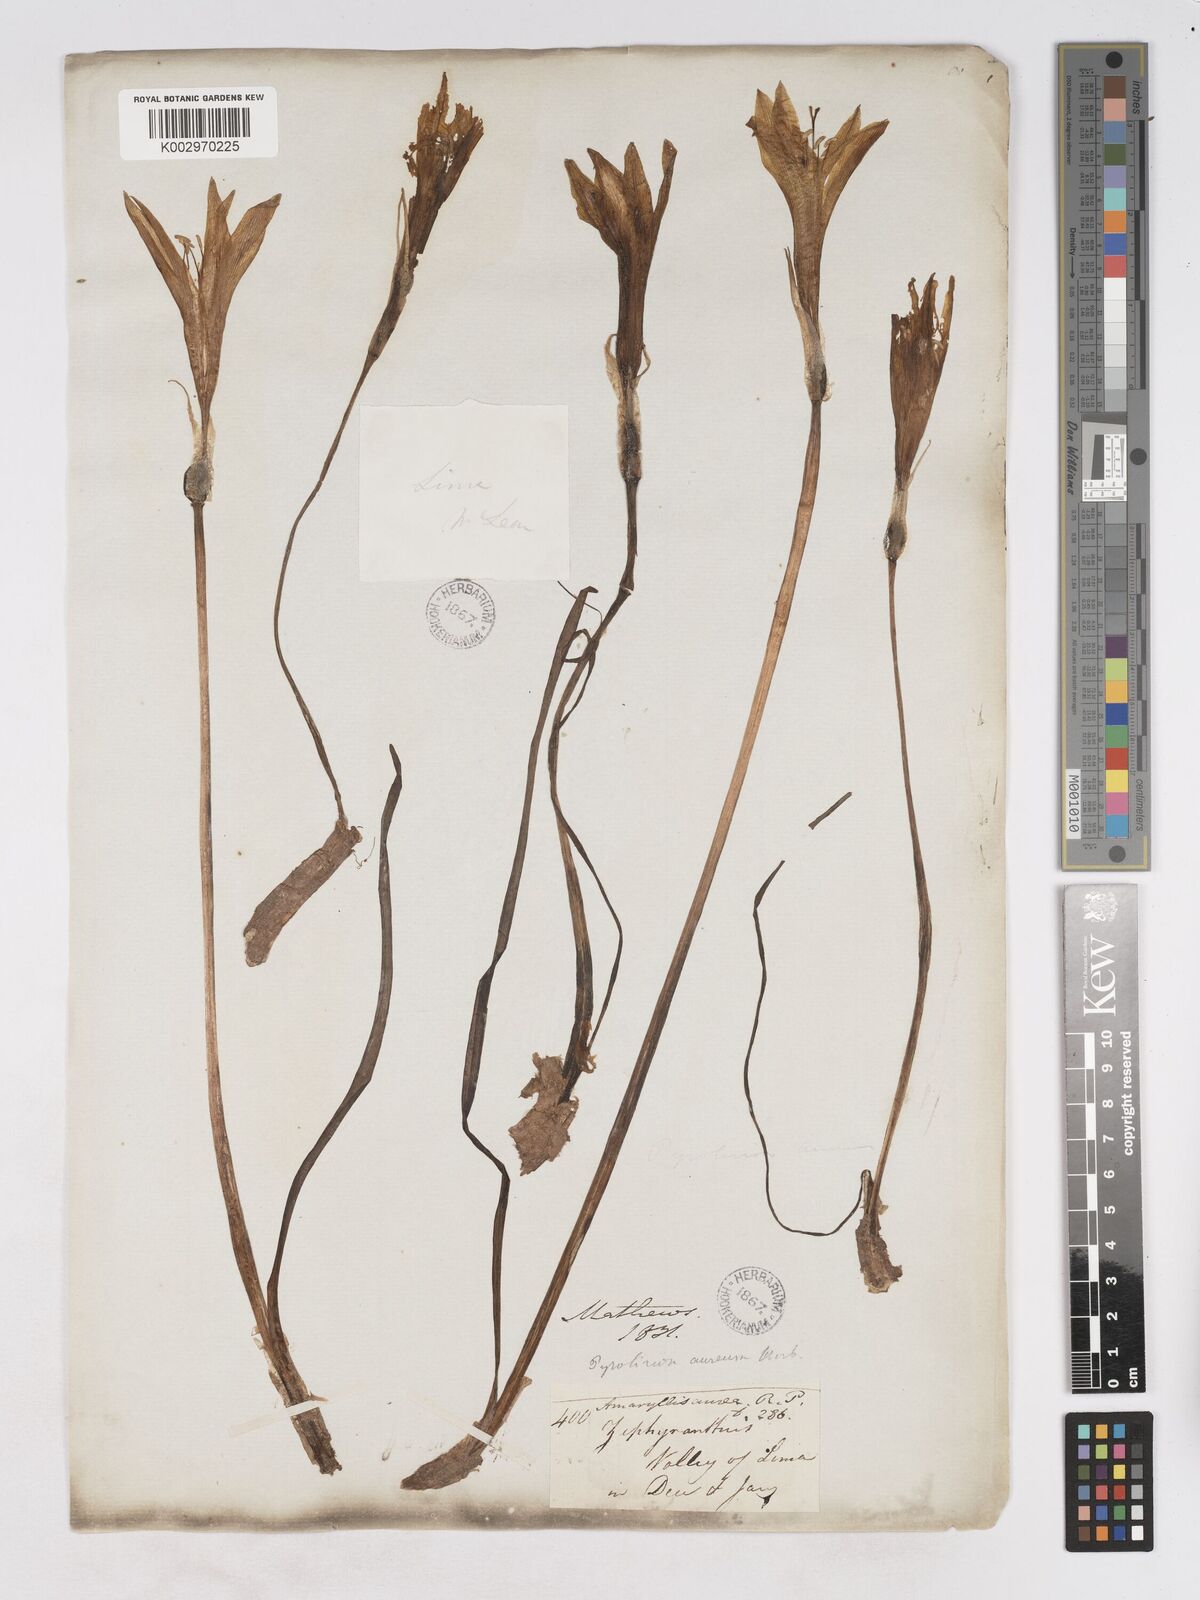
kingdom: Plantae
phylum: Tracheophyta
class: Liliopsida
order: Asparagales
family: Amaryllidaceae
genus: Pyrolirion
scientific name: Pyrolirion tubiflorum
